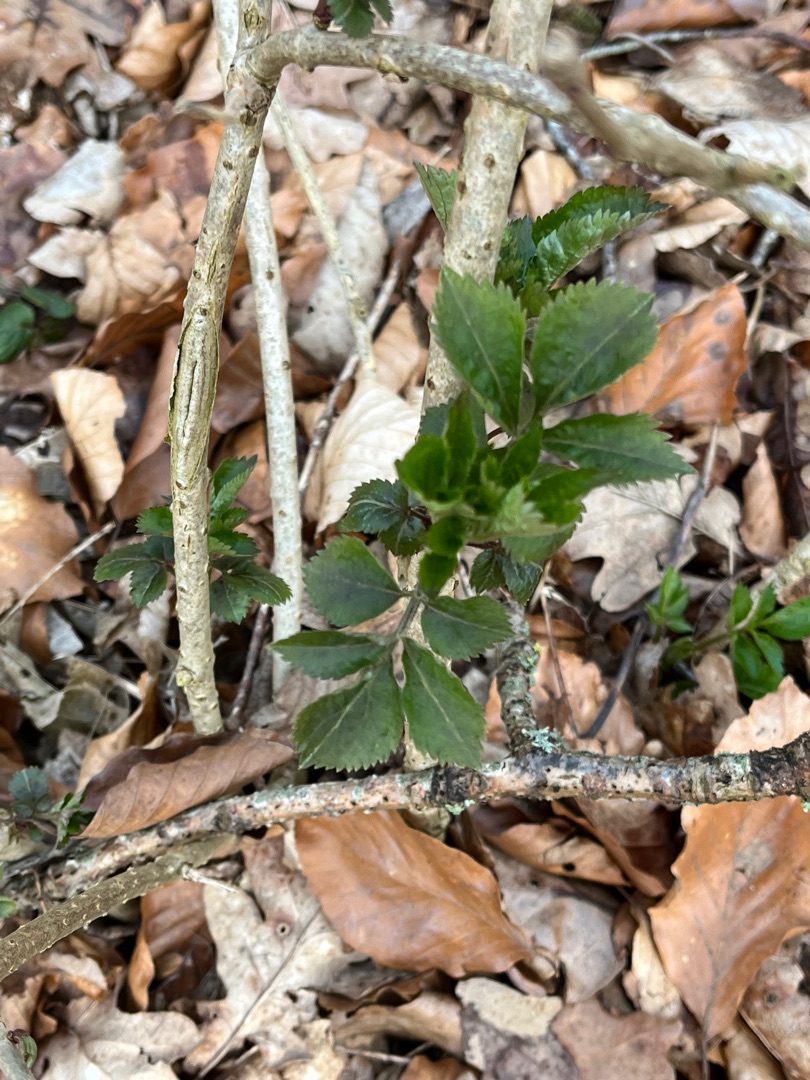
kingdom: Plantae
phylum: Tracheophyta
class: Magnoliopsida
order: Dipsacales
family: Viburnaceae
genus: Sambucus
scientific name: Sambucus nigra
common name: Almindelig hyld
